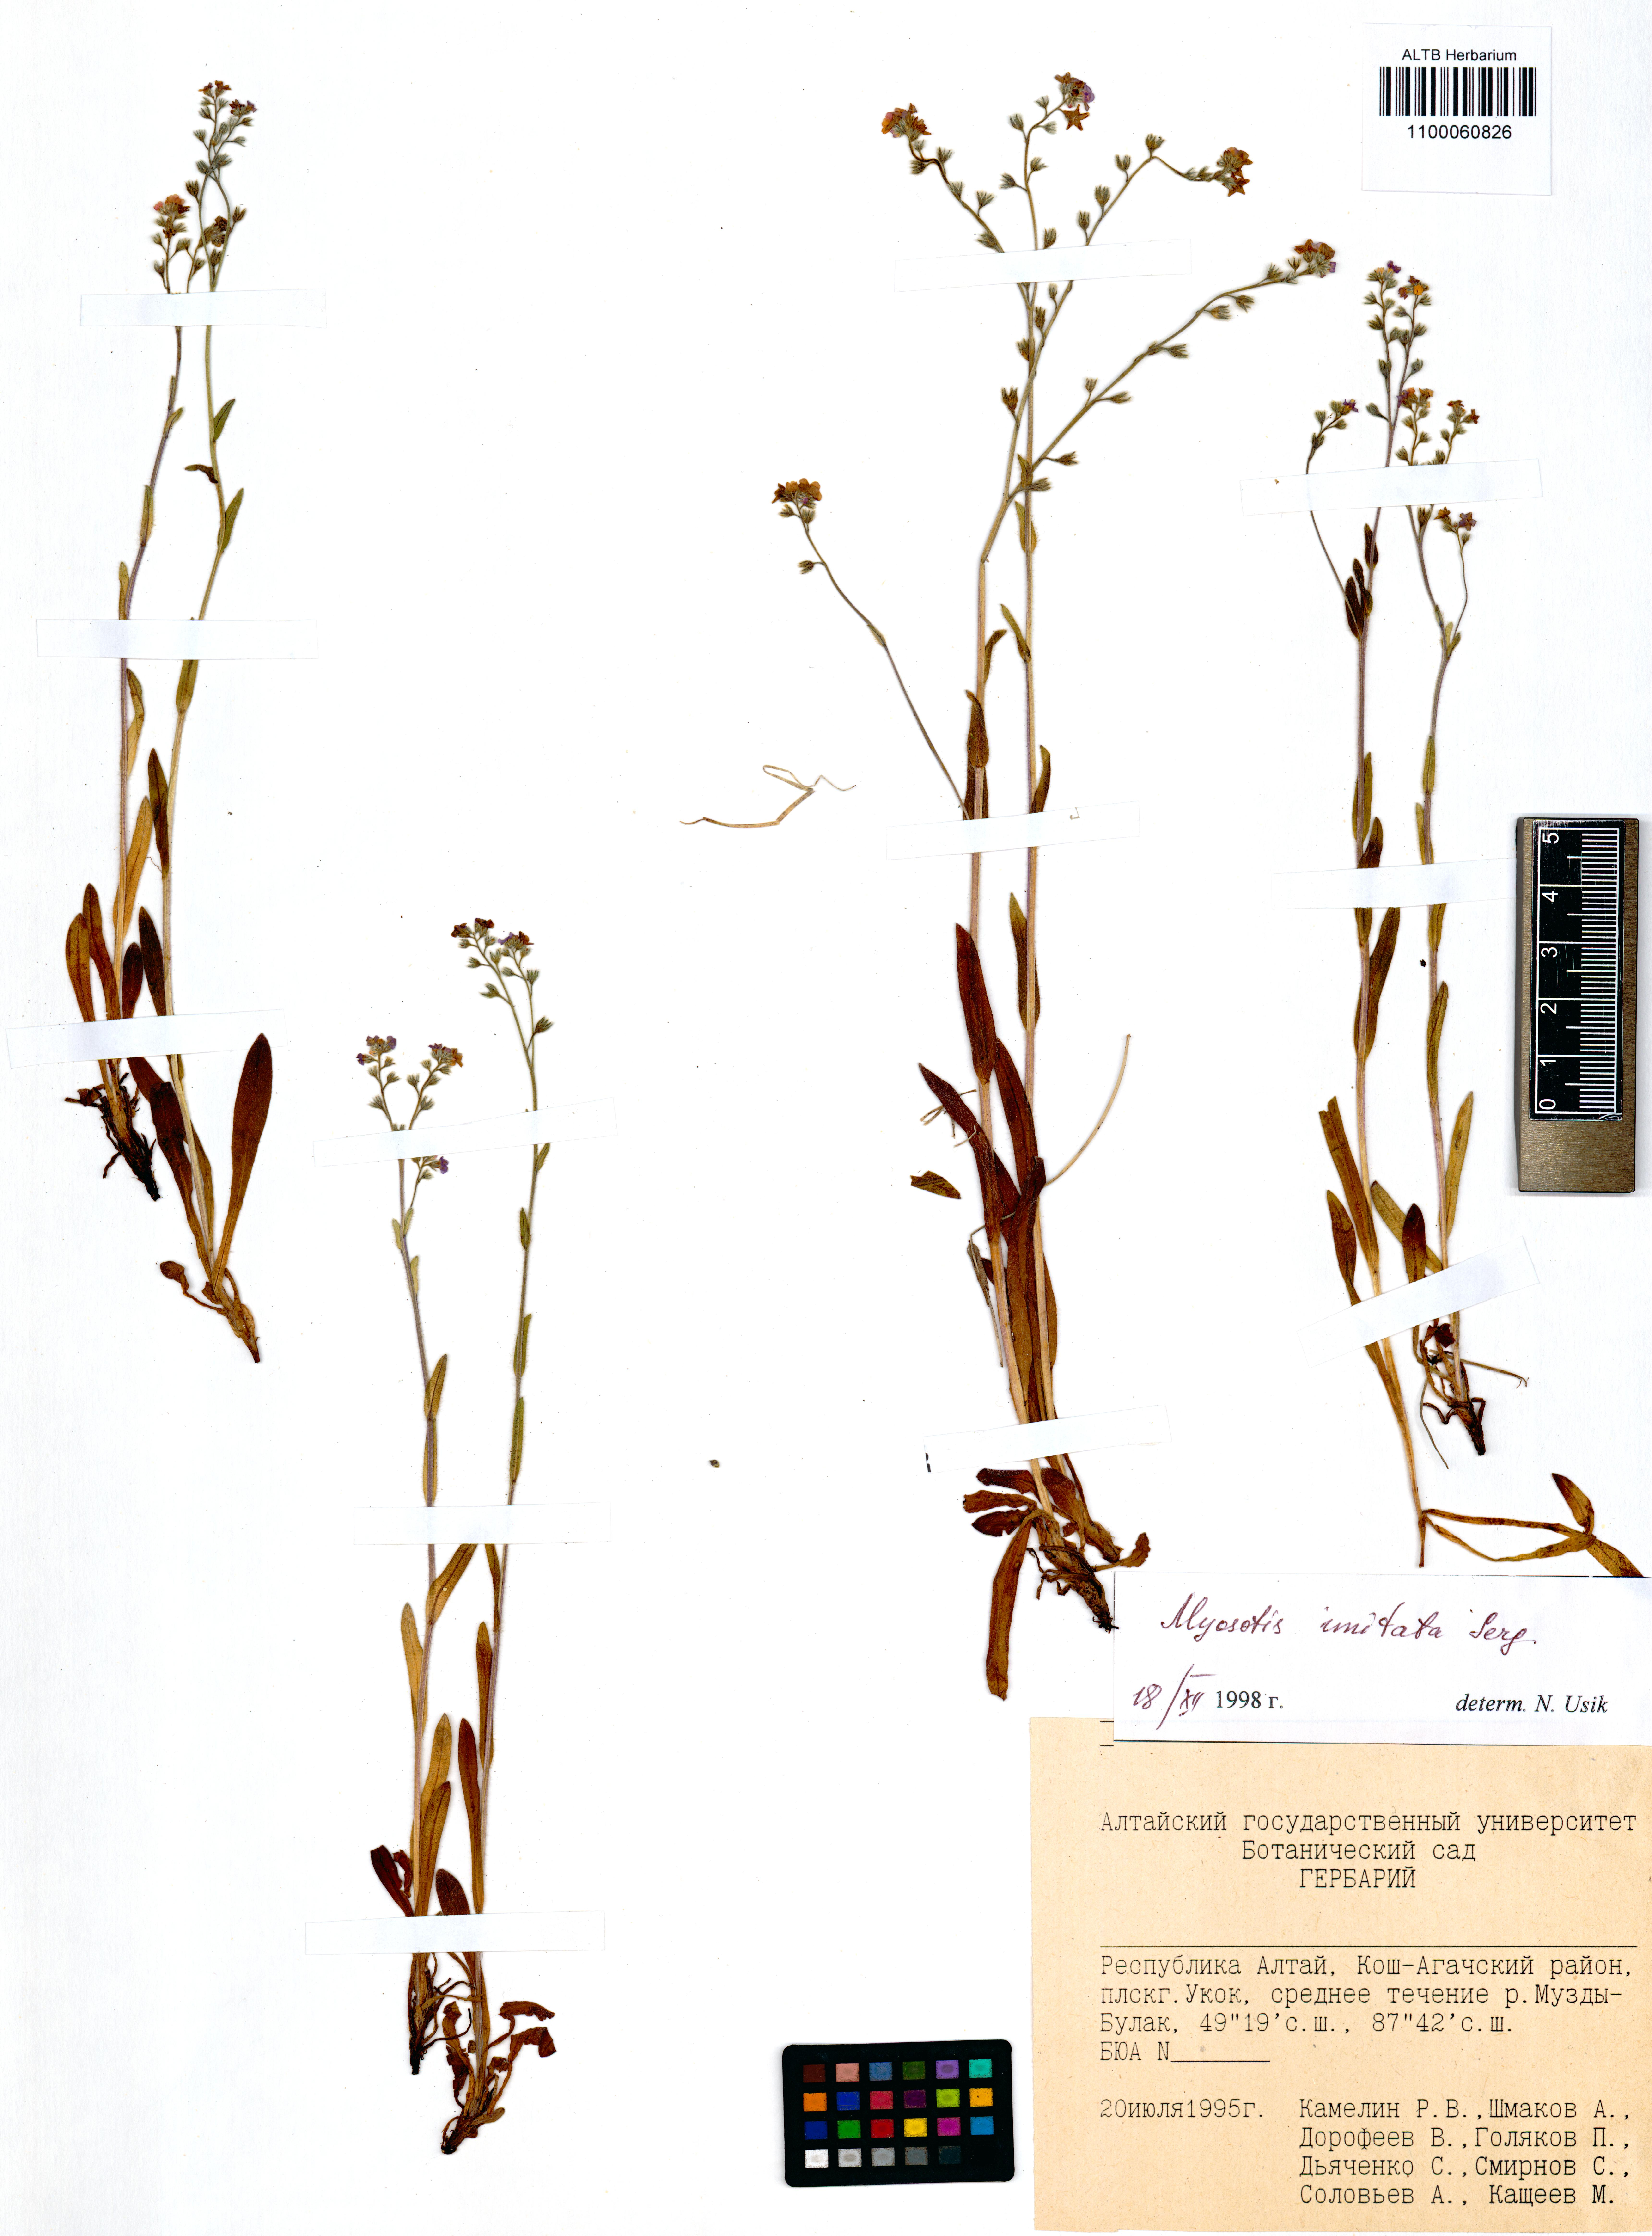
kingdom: Plantae
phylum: Tracheophyta
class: Magnoliopsida
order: Boraginales
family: Boraginaceae
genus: Myosotis
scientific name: Myosotis imitata
